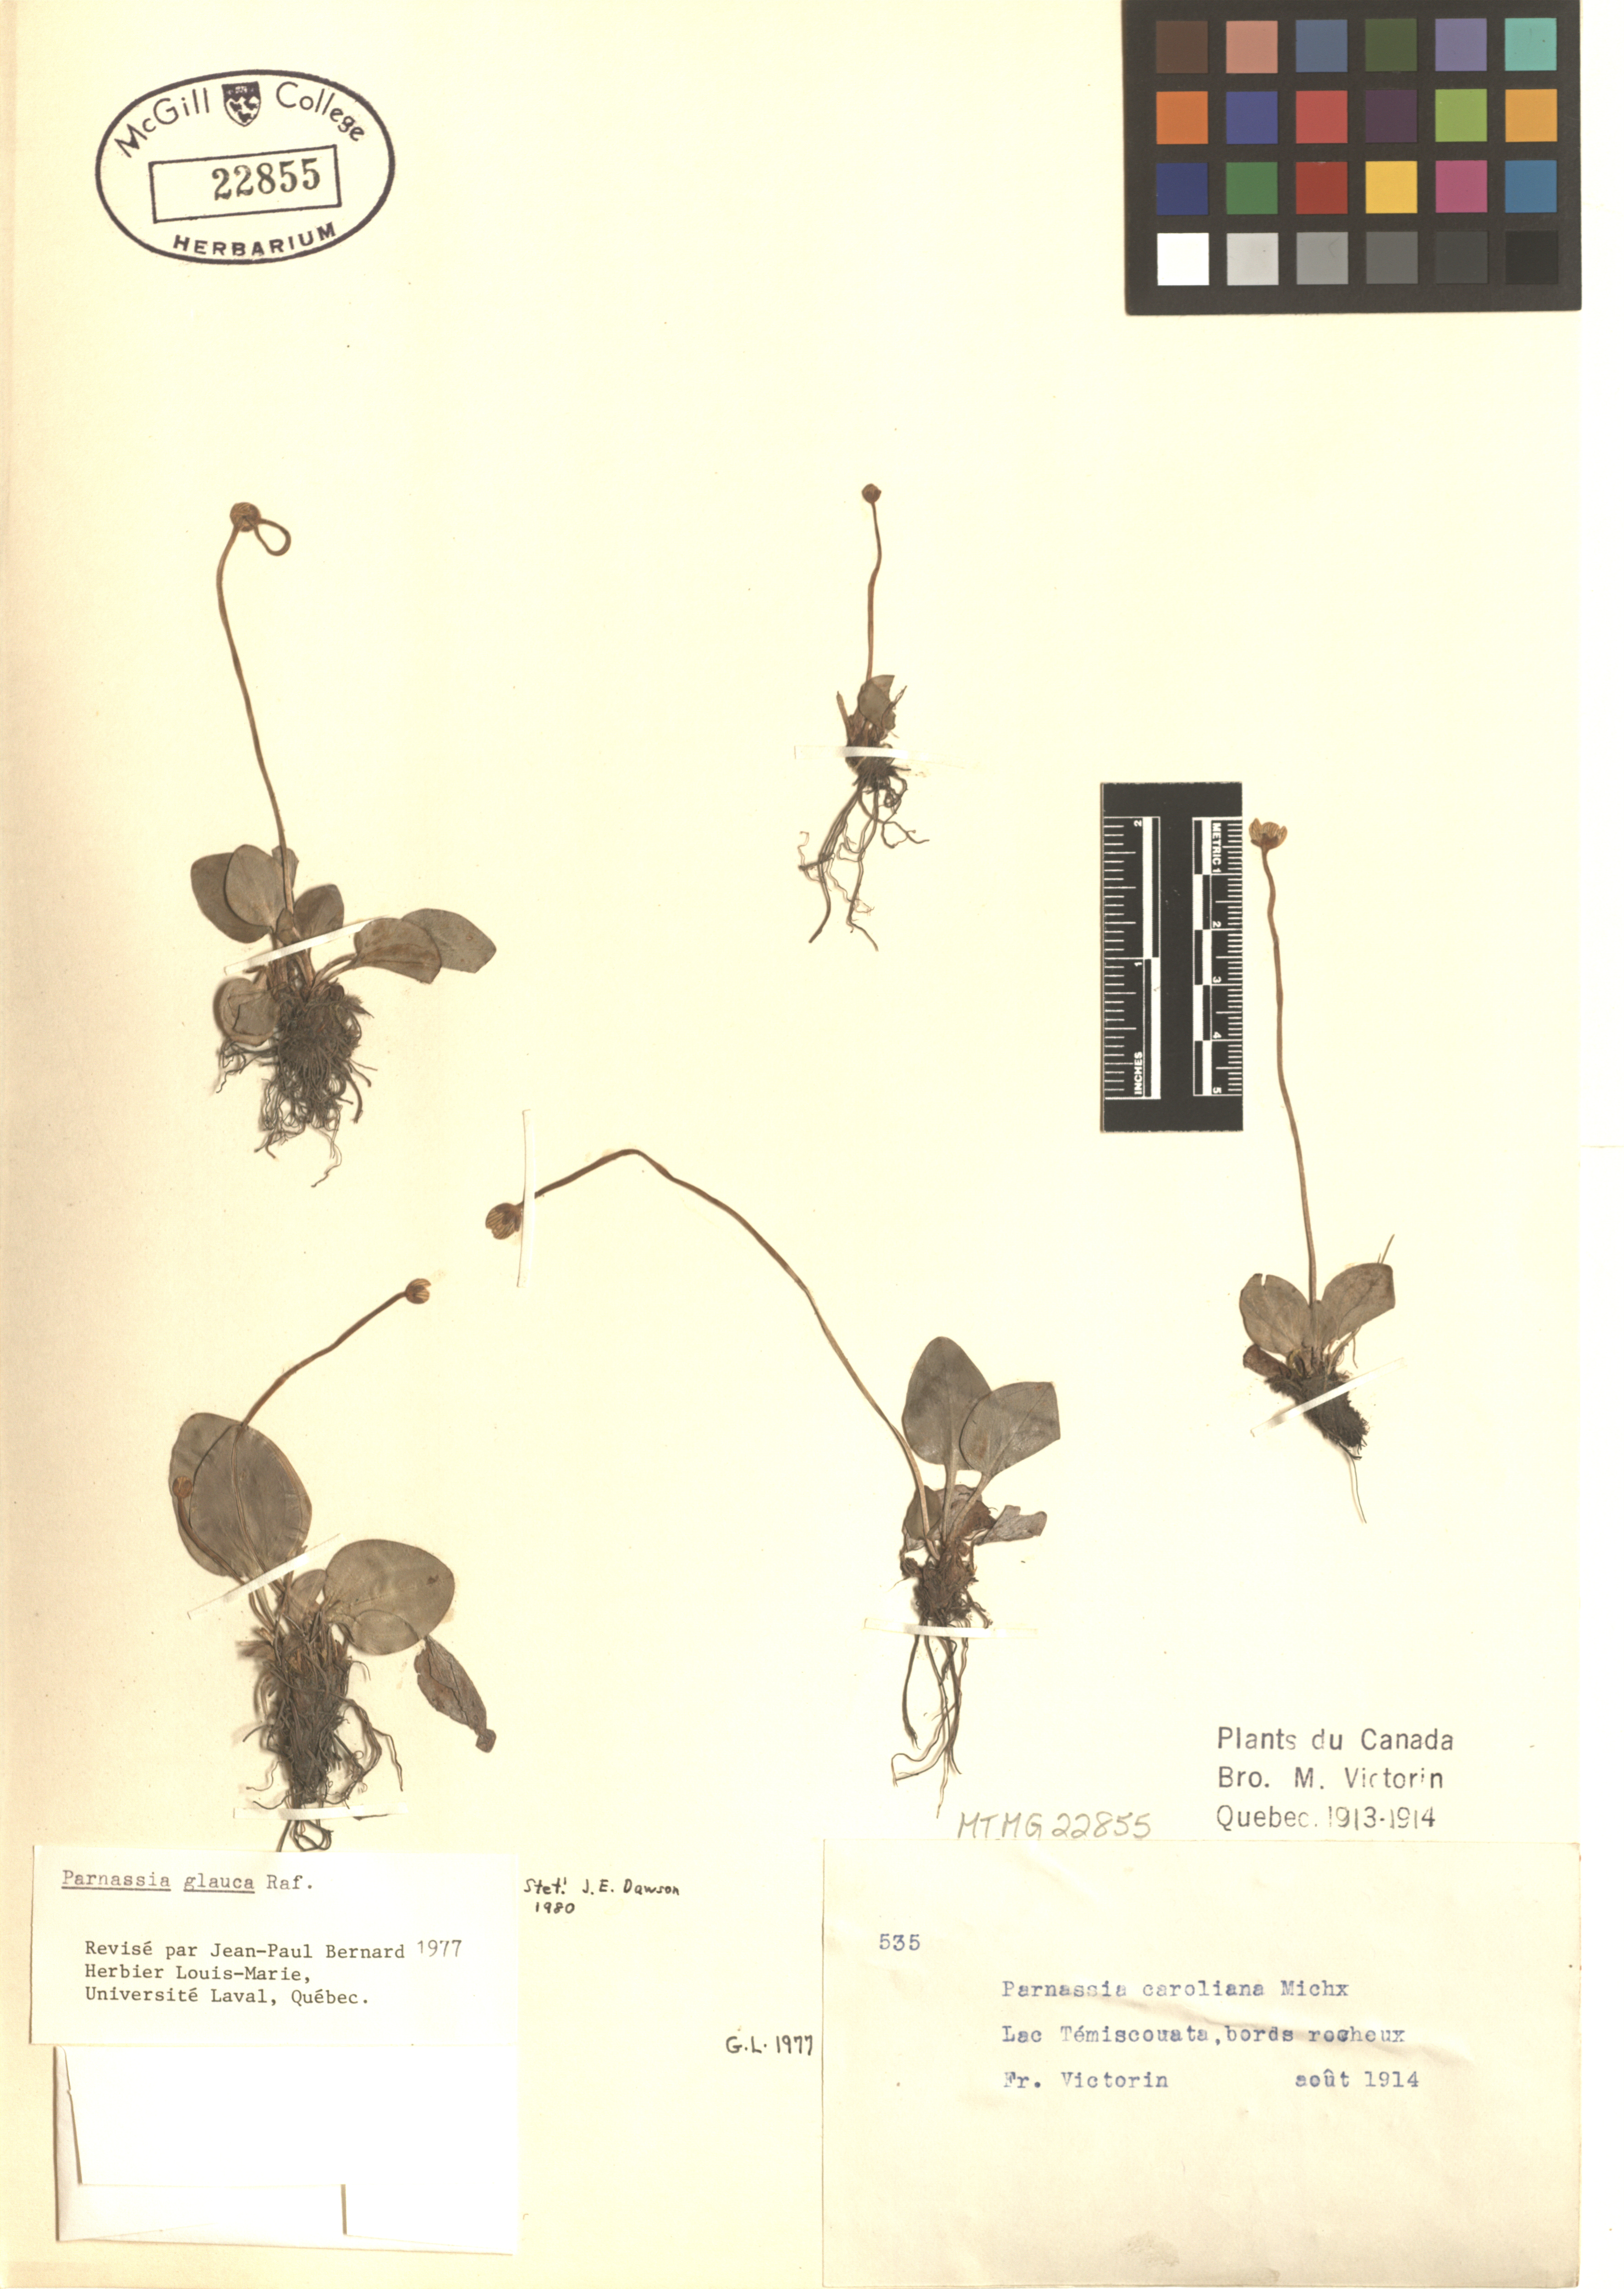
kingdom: Plantae
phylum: Tracheophyta
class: Magnoliopsida
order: Celastrales
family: Parnassiaceae
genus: Parnassia
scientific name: Parnassia glauca
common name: American grass-of-parnassus
